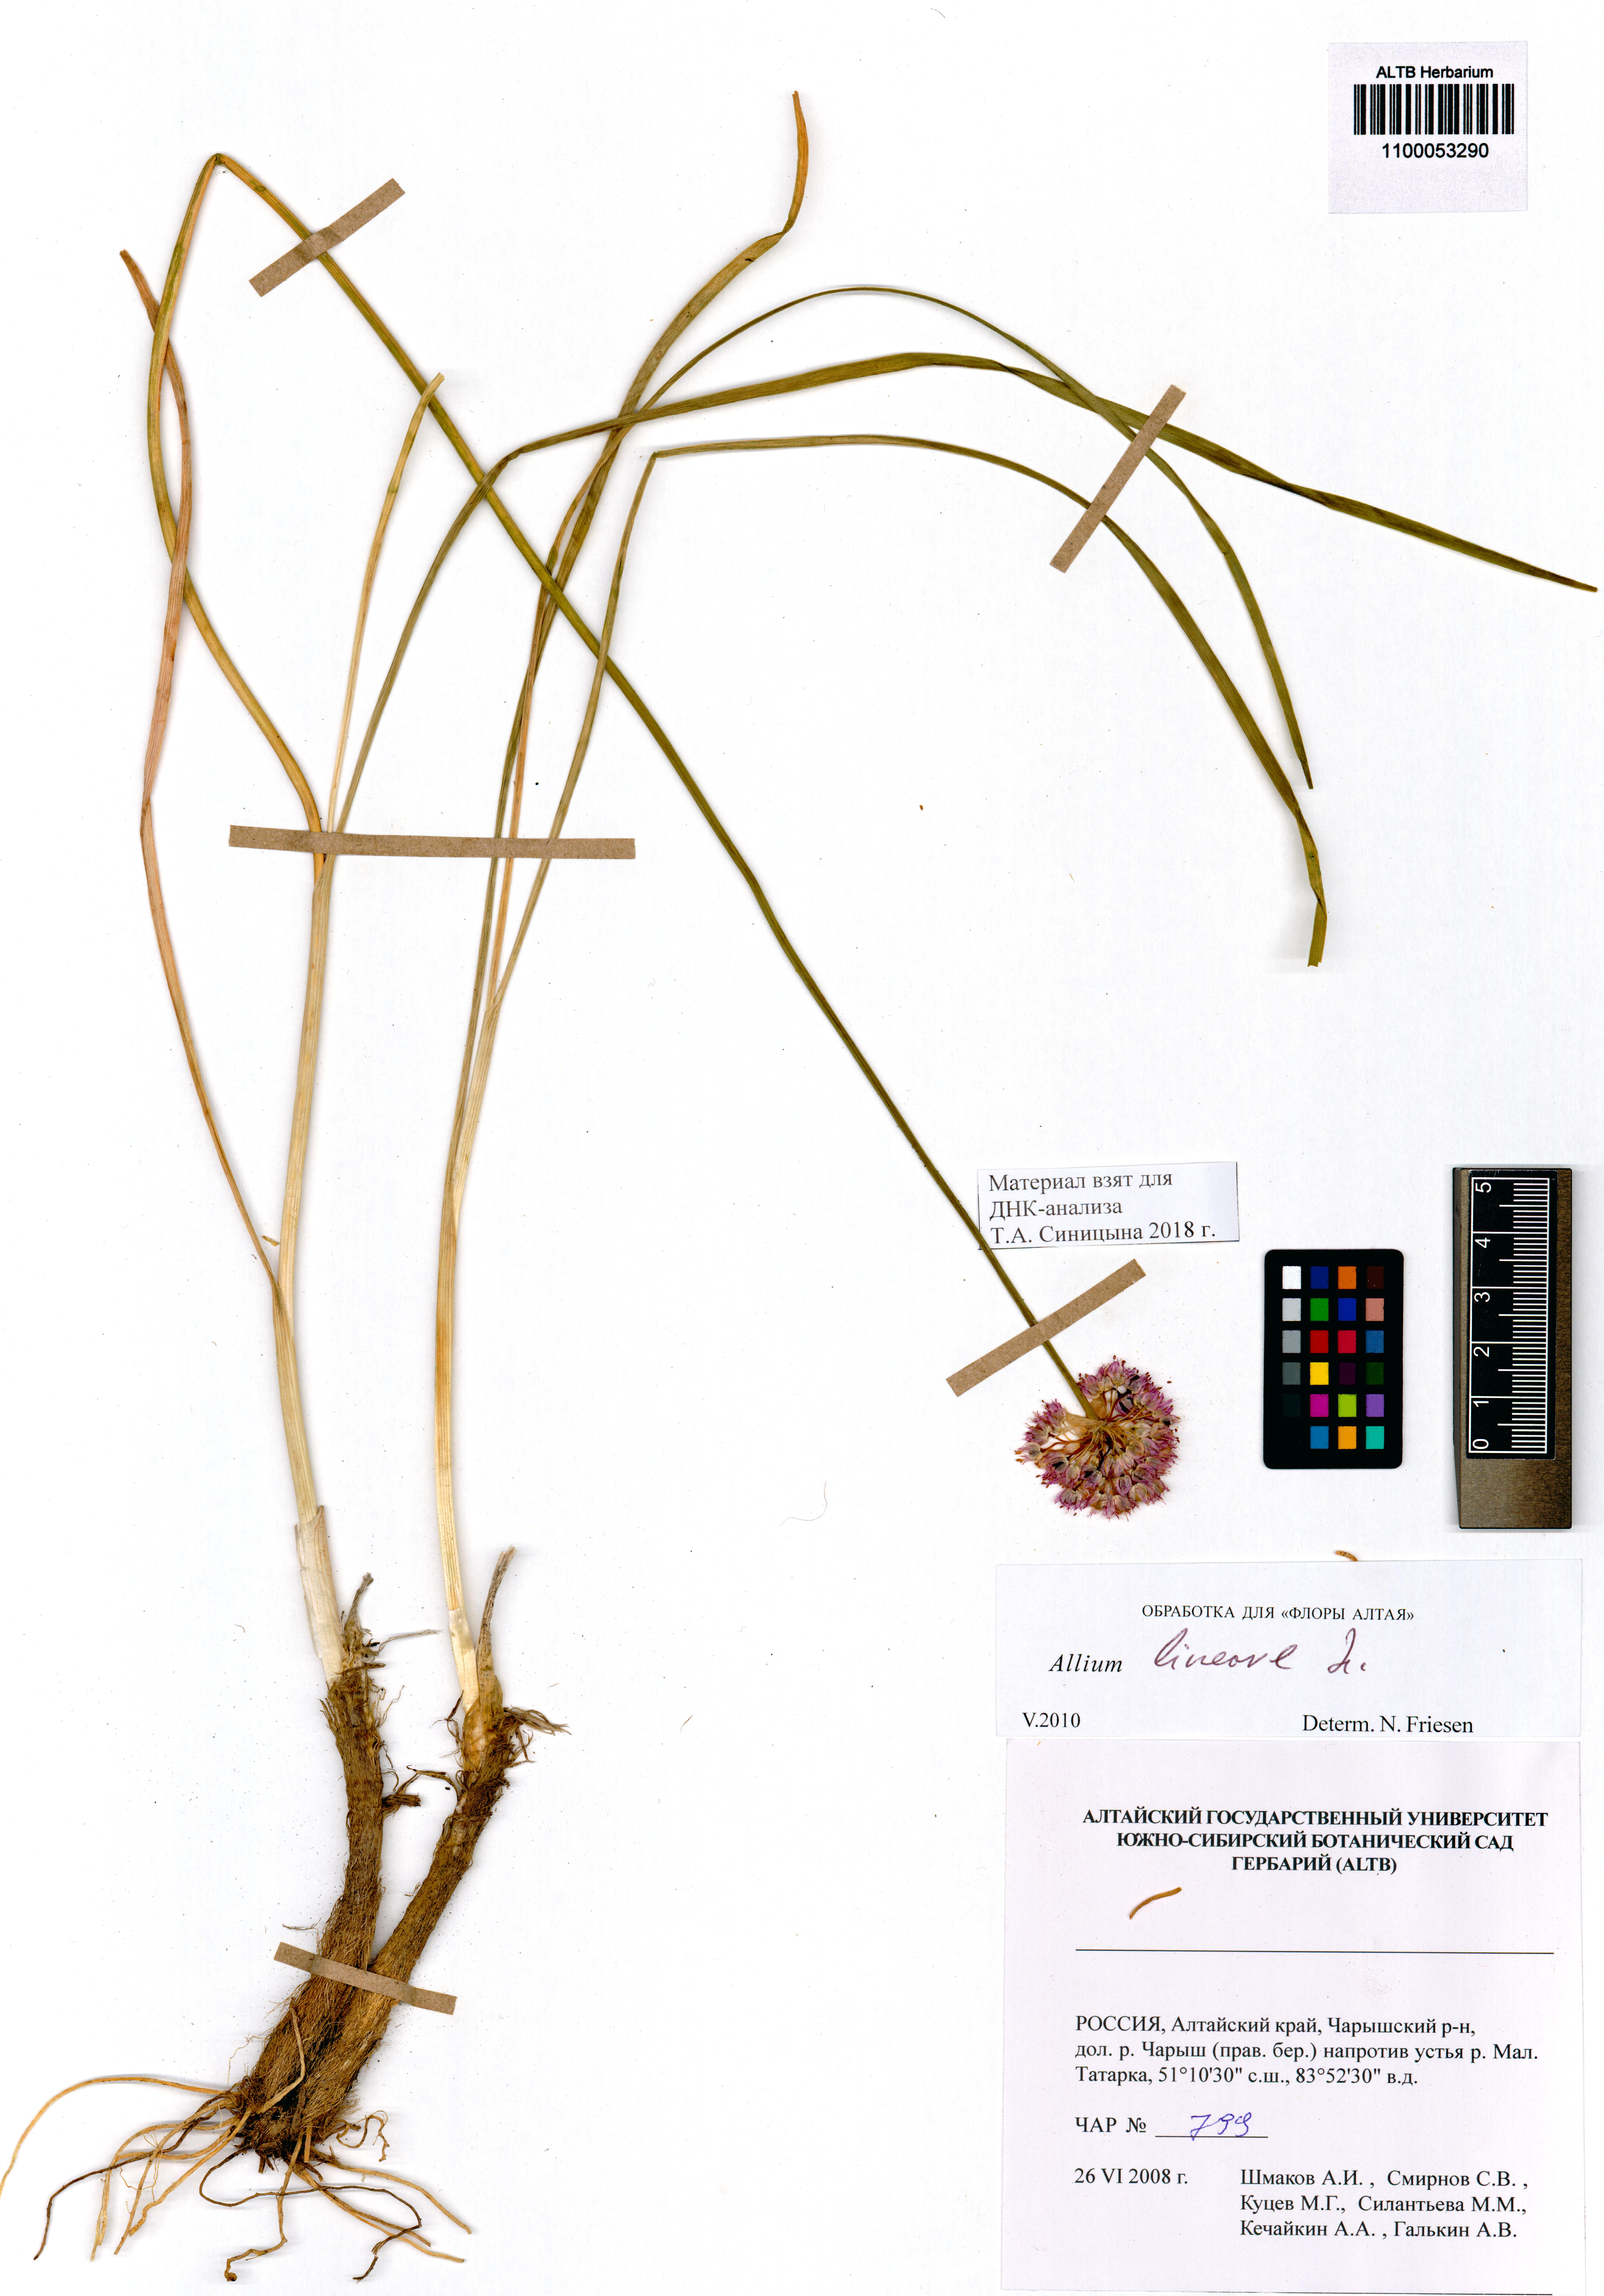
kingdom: Plantae
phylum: Tracheophyta
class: Liliopsida
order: Asparagales
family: Amaryllidaceae
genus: Allium
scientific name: Allium lineare
